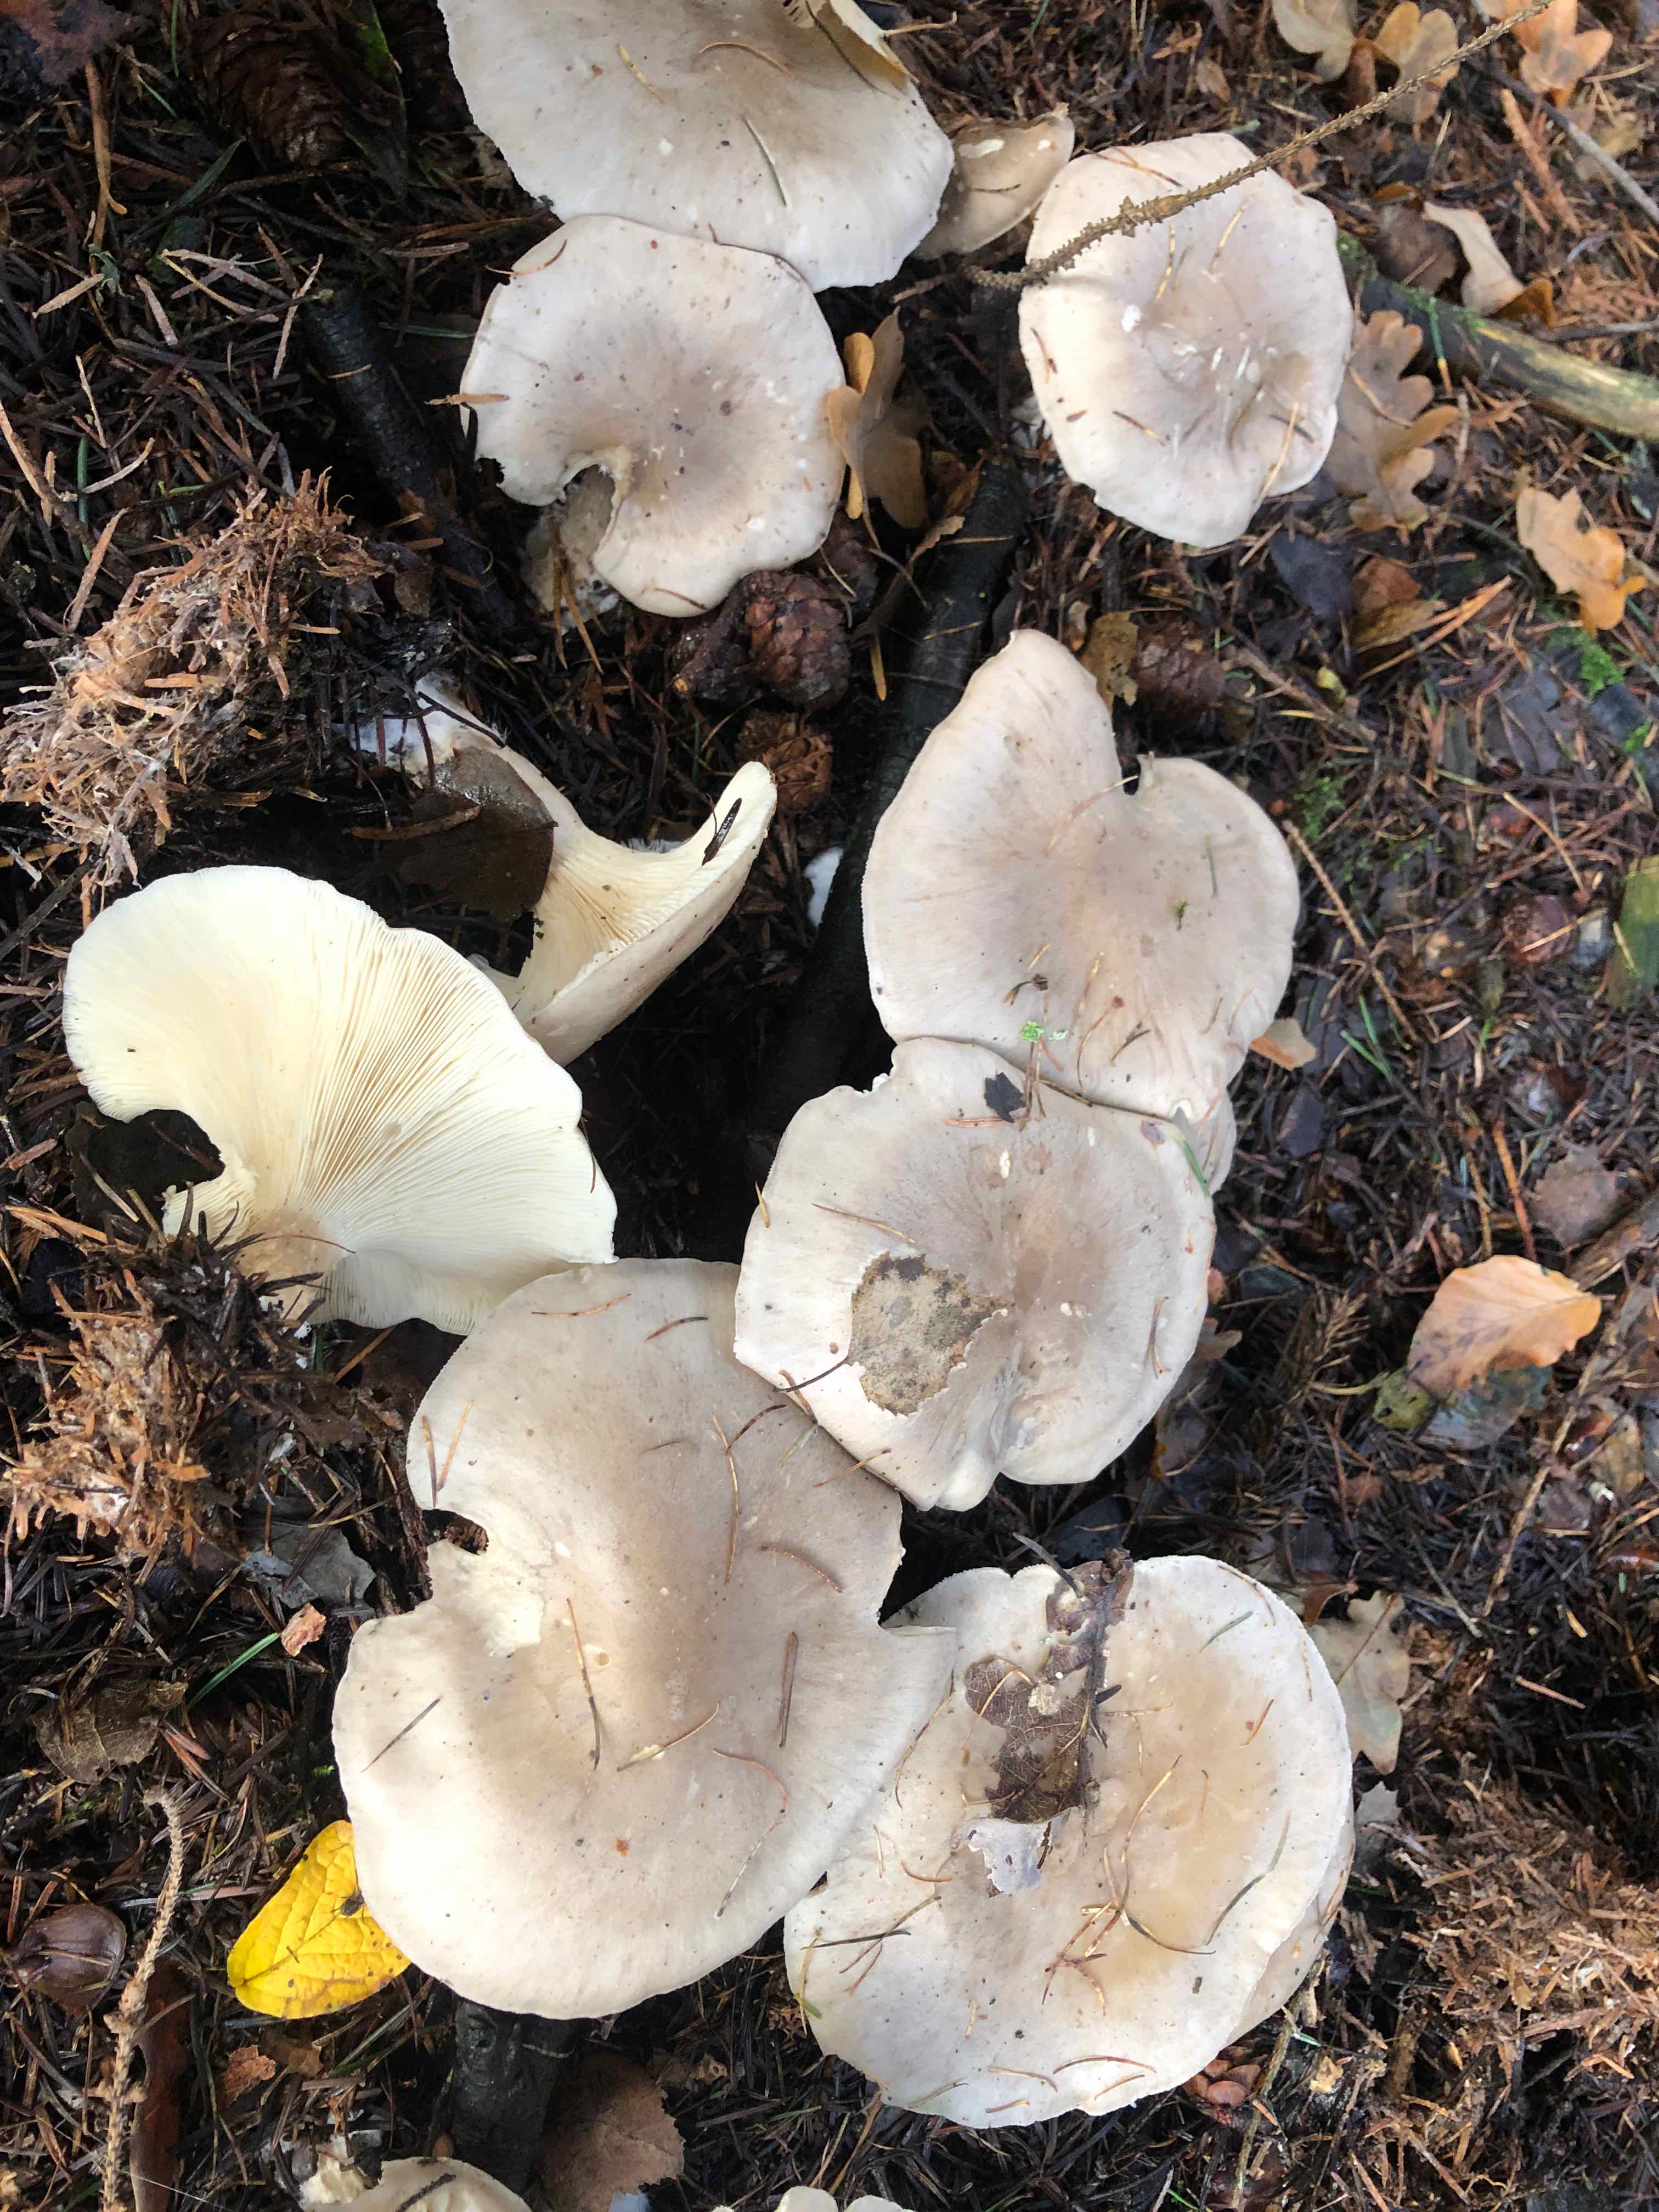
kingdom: Fungi
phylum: Basidiomycota
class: Agaricomycetes
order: Agaricales
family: Tricholomataceae
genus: Clitocybe
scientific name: Clitocybe nebularis
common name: tåge-tragthat
